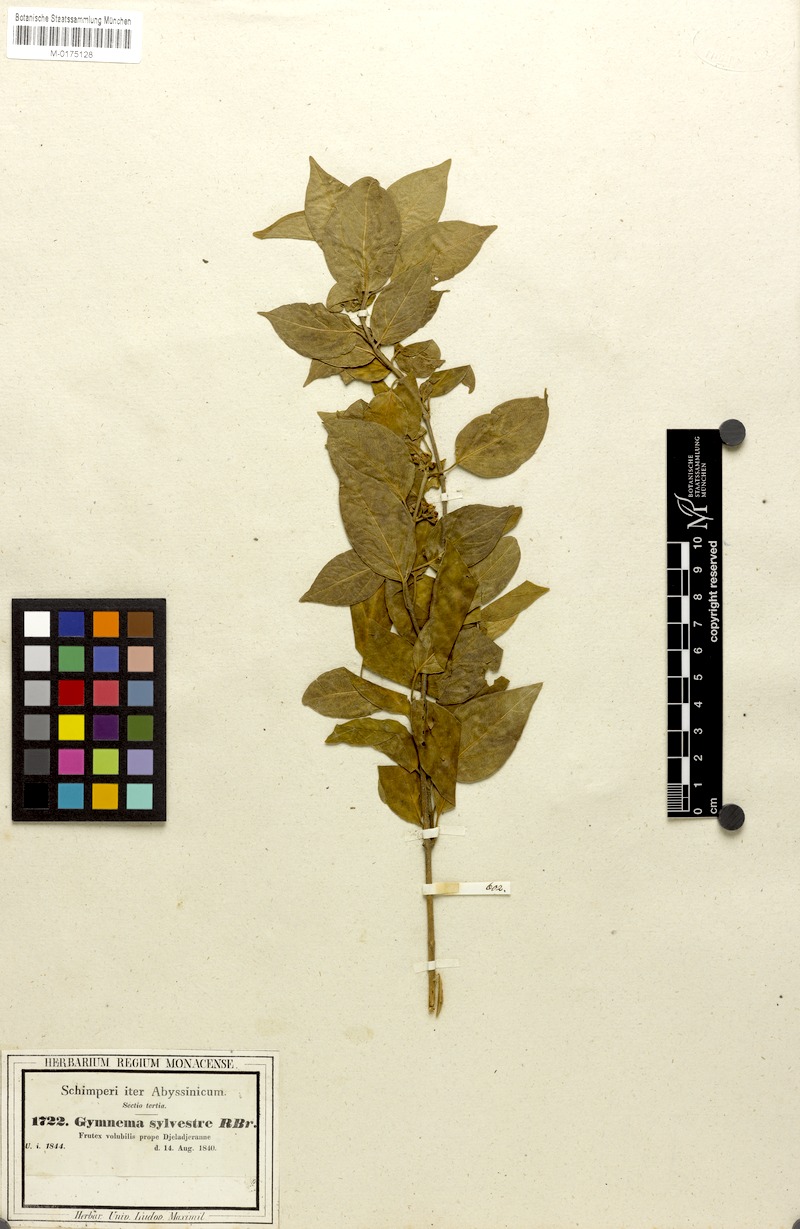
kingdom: Plantae
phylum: Tracheophyta
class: Magnoliopsida
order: Gentianales
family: Apocynaceae
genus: Gymnema
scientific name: Gymnema sylvestre
